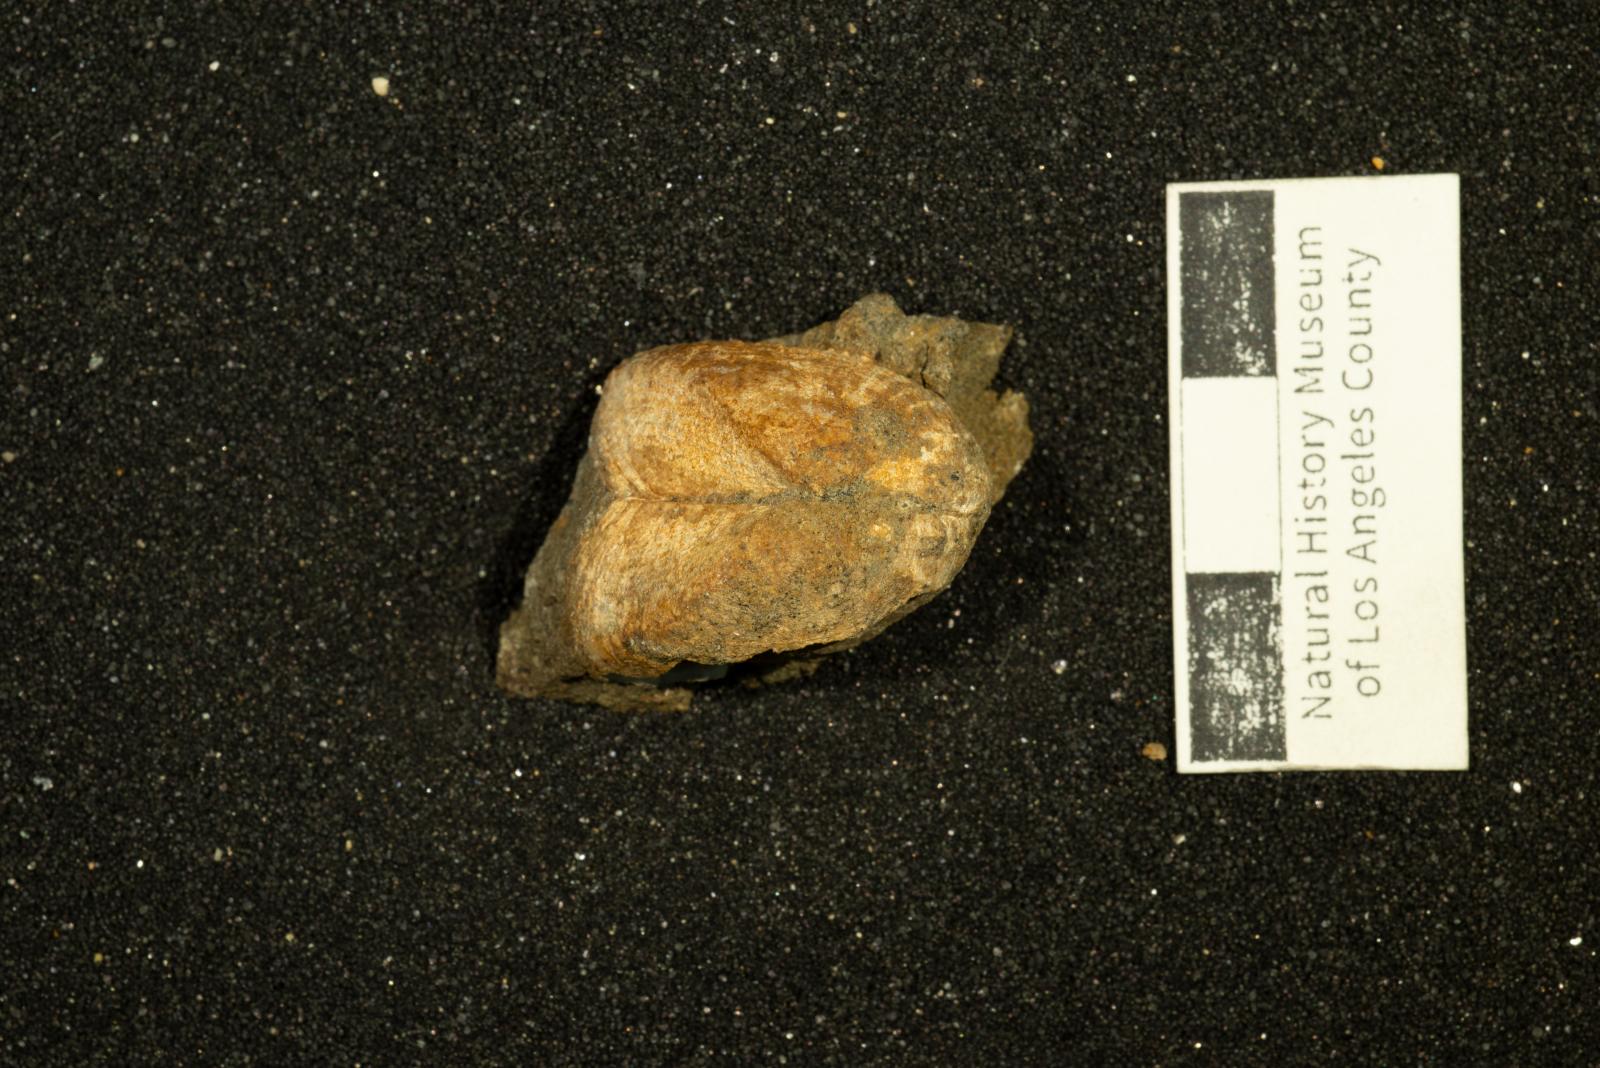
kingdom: Animalia
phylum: Mollusca
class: Bivalvia
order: Arcida
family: Parallelodontidae
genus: Nemodon
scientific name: Nemodon
